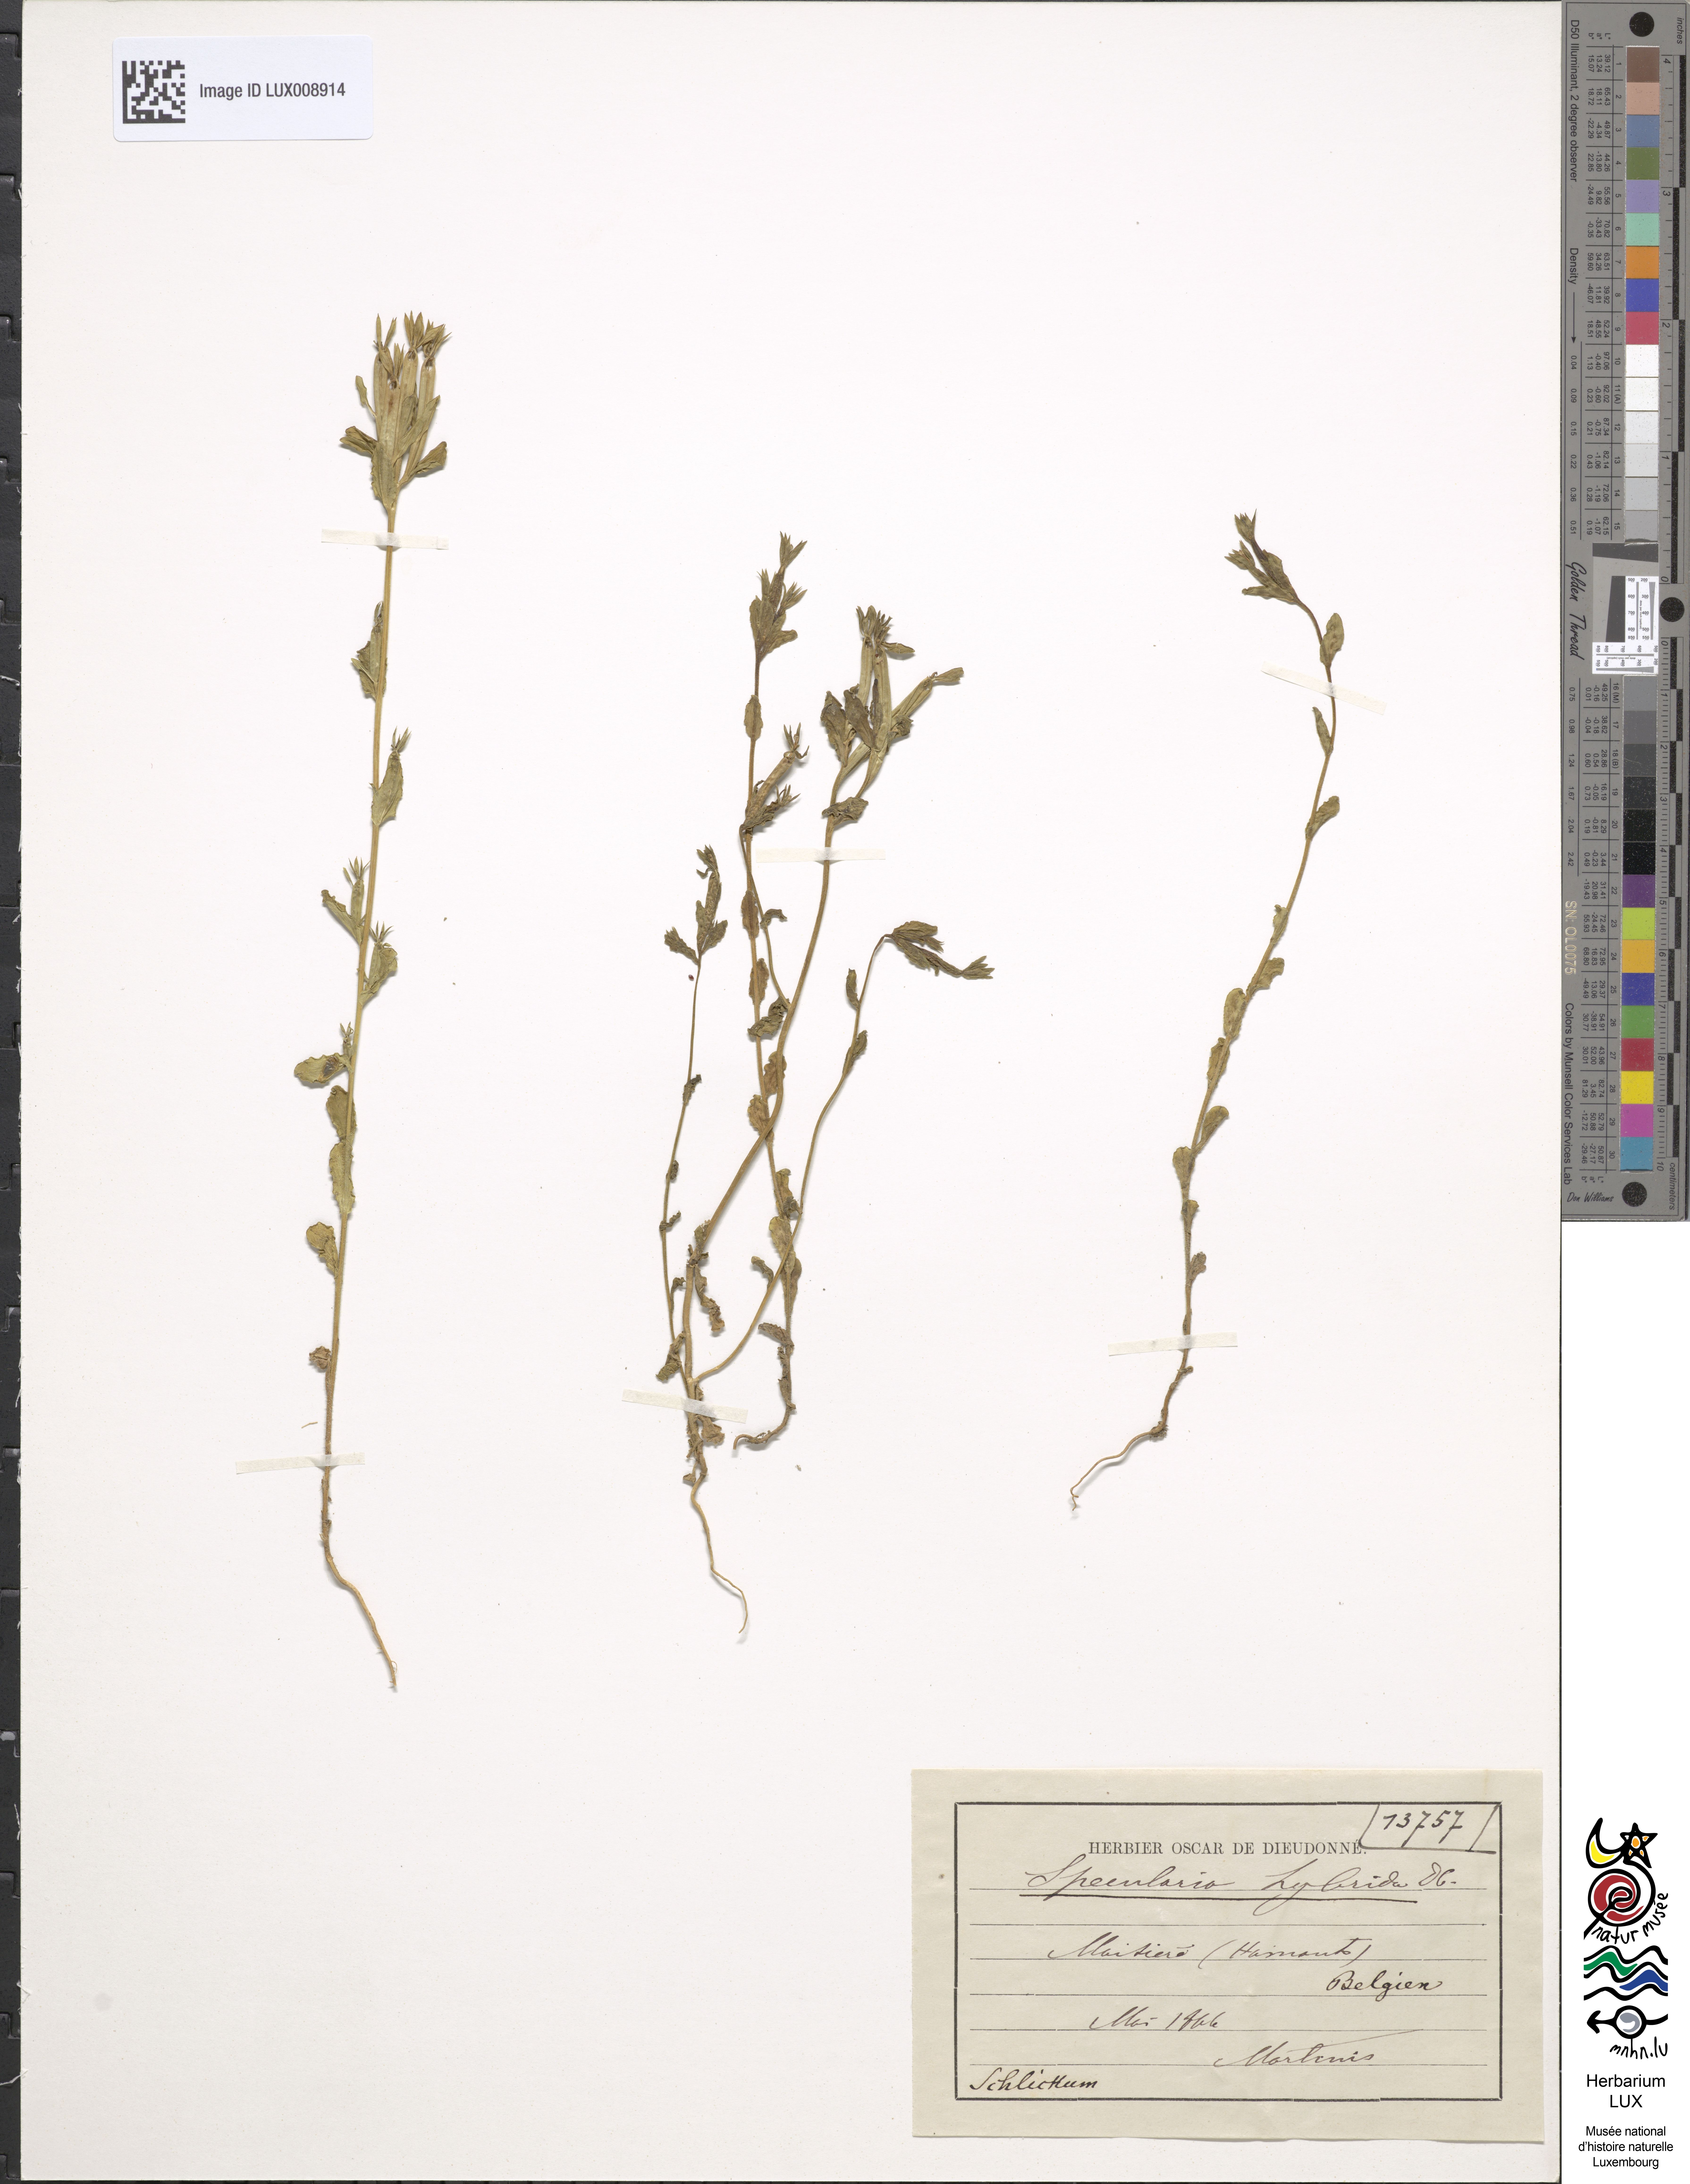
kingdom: Plantae
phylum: Tracheophyta
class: Magnoliopsida
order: Asterales
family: Campanulaceae
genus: Legousia
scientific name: Legousia hybrida
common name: Venus's-looking-glass
